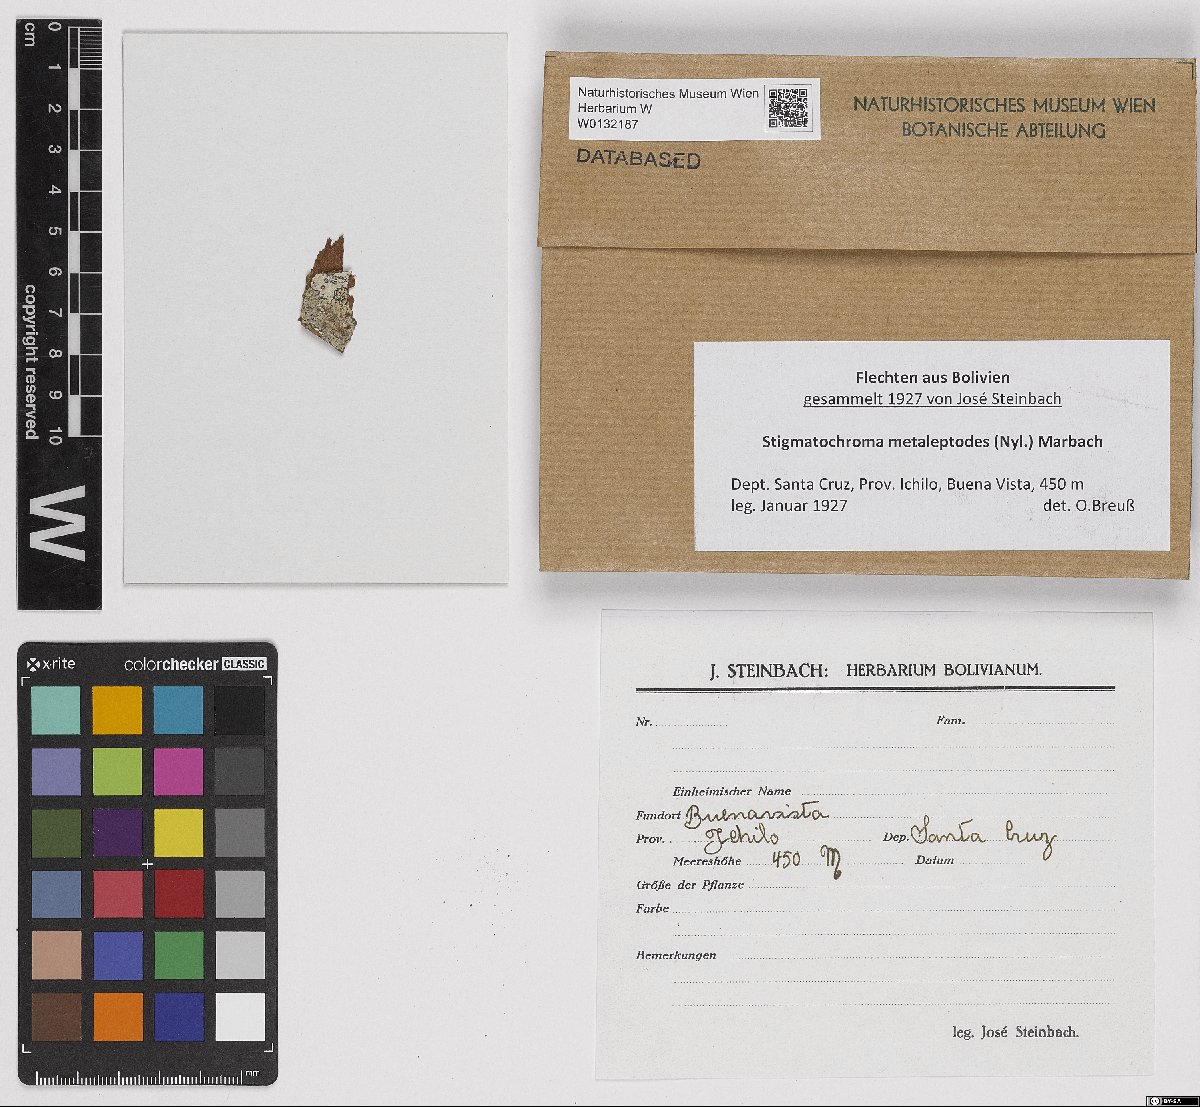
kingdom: Fungi
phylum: Ascomycota
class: Lecanoromycetes
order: Caliciales
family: Caliciaceae
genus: Stigmatochroma
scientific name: Stigmatochroma metaleptodes
